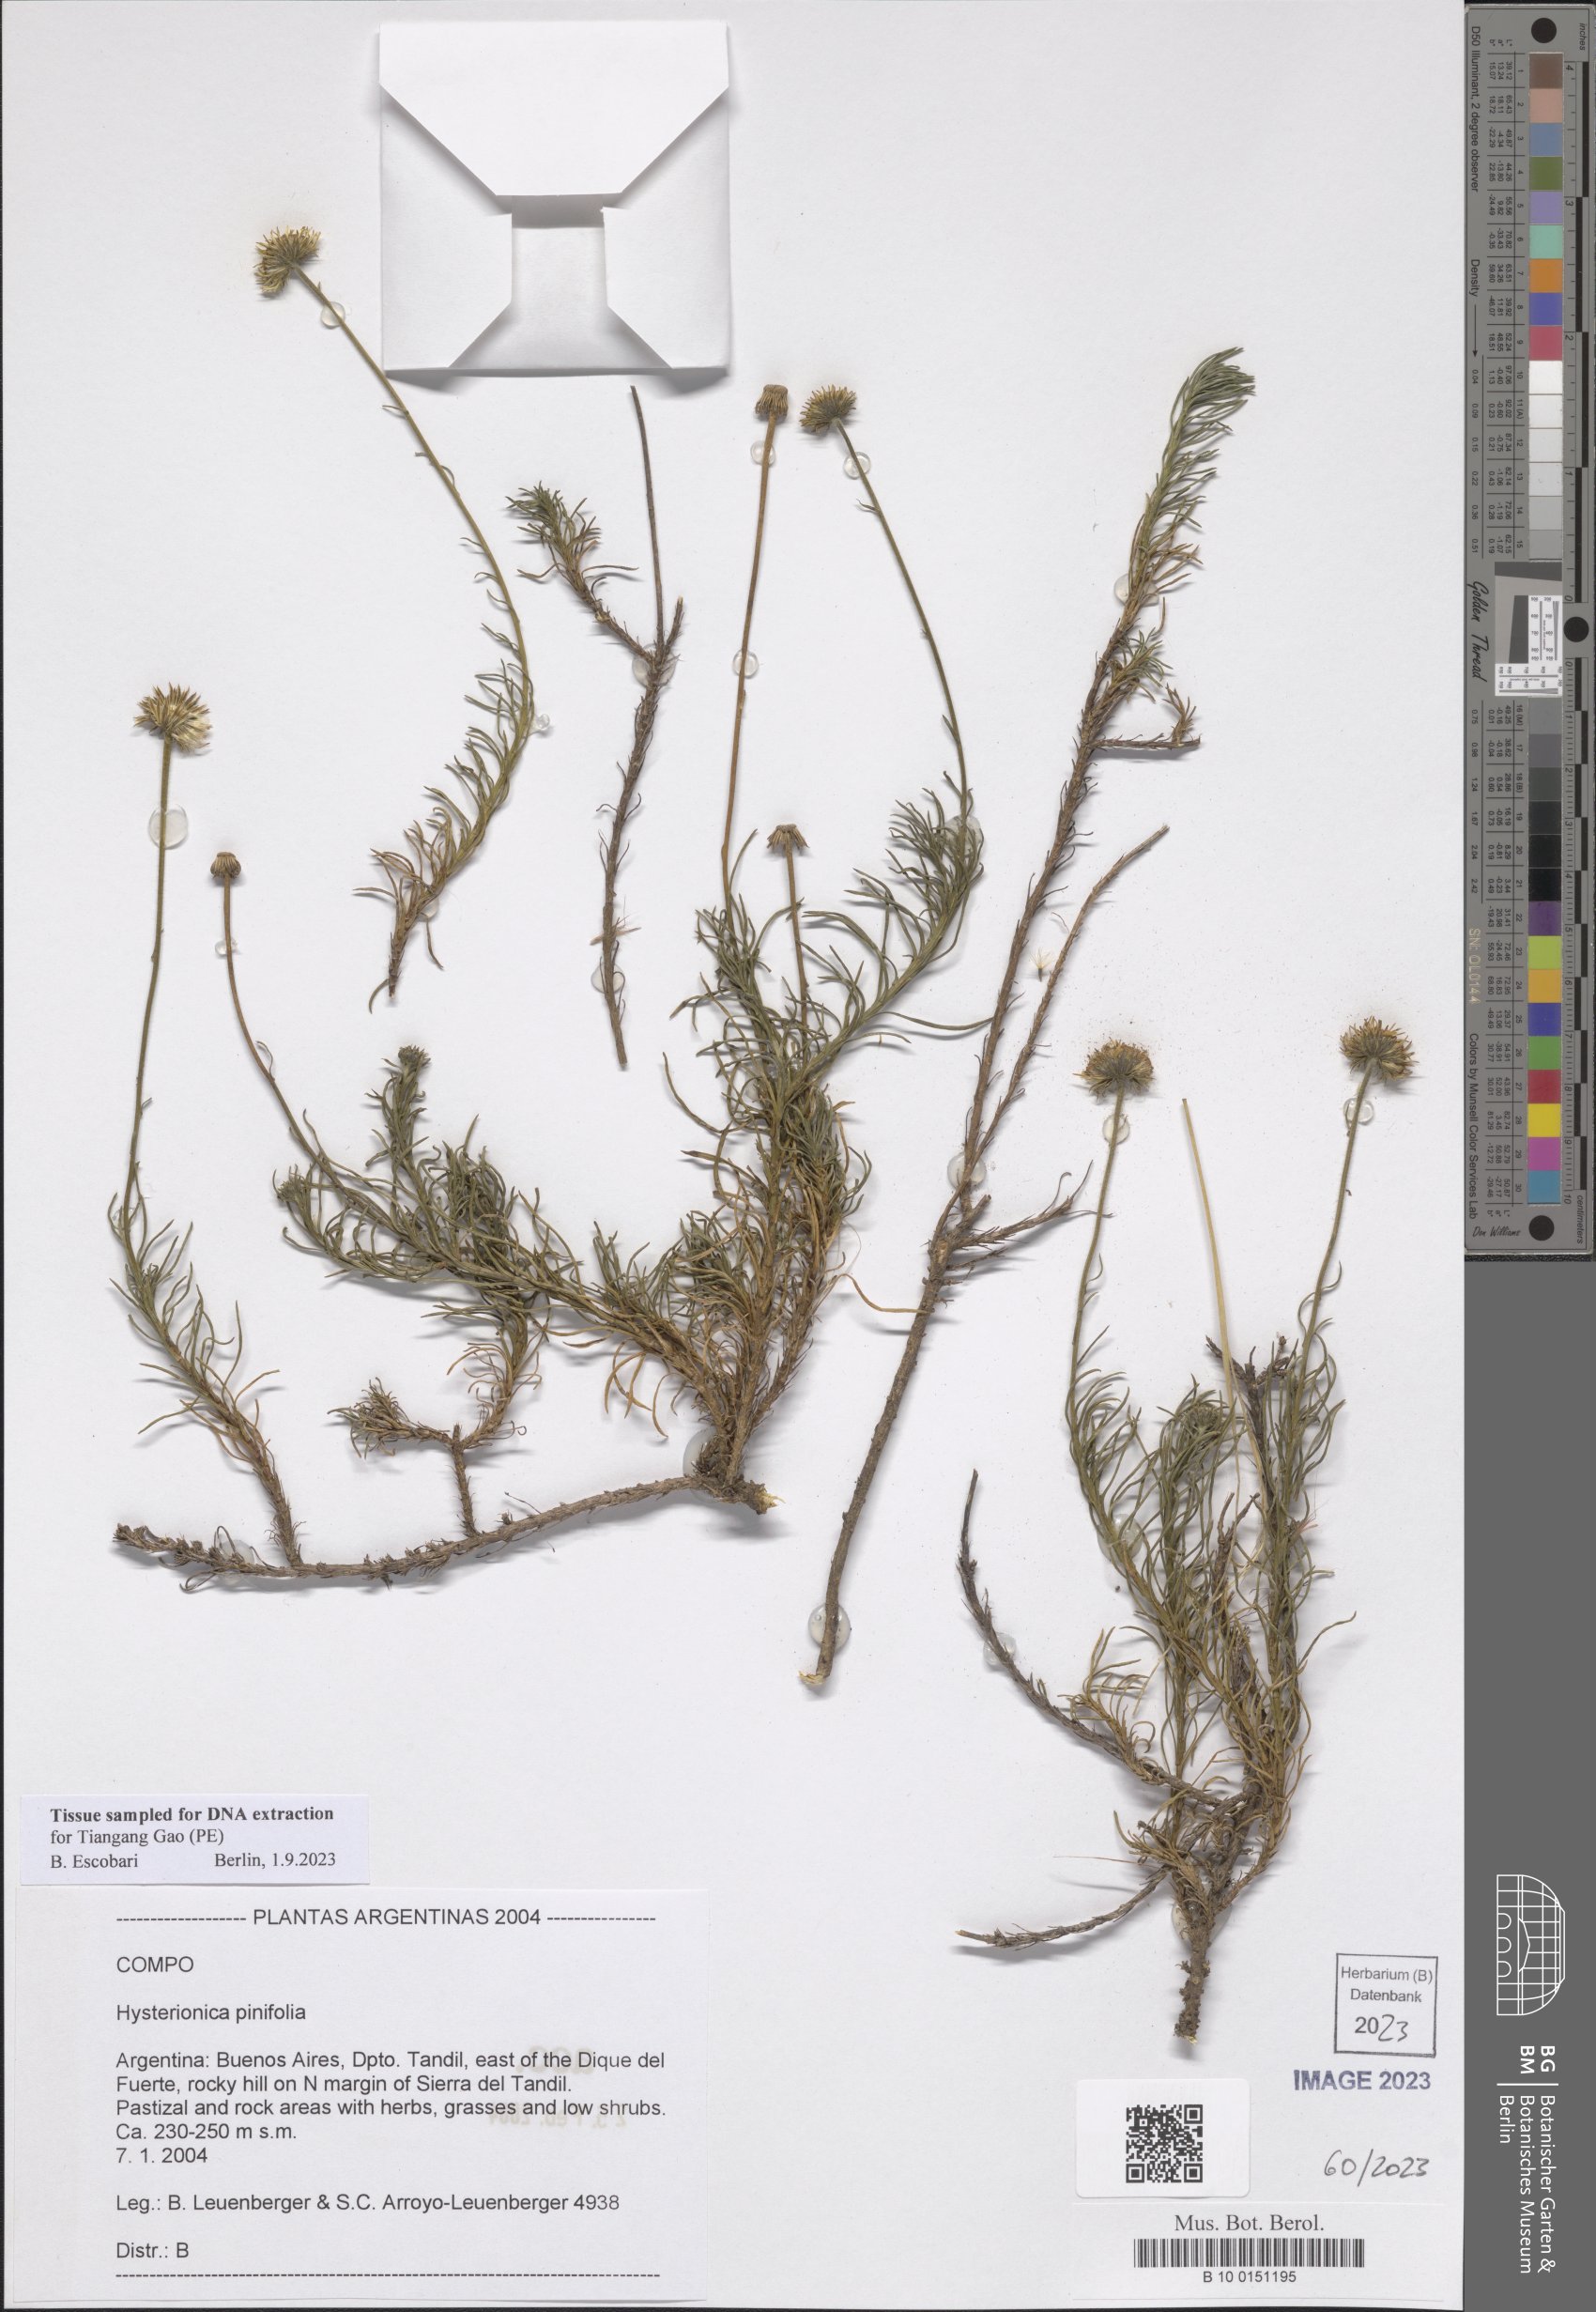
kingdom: Plantae
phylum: Tracheophyta
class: Magnoliopsida
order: Asterales
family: Asteraceae
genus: Neja
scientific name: Neja pinifolia
